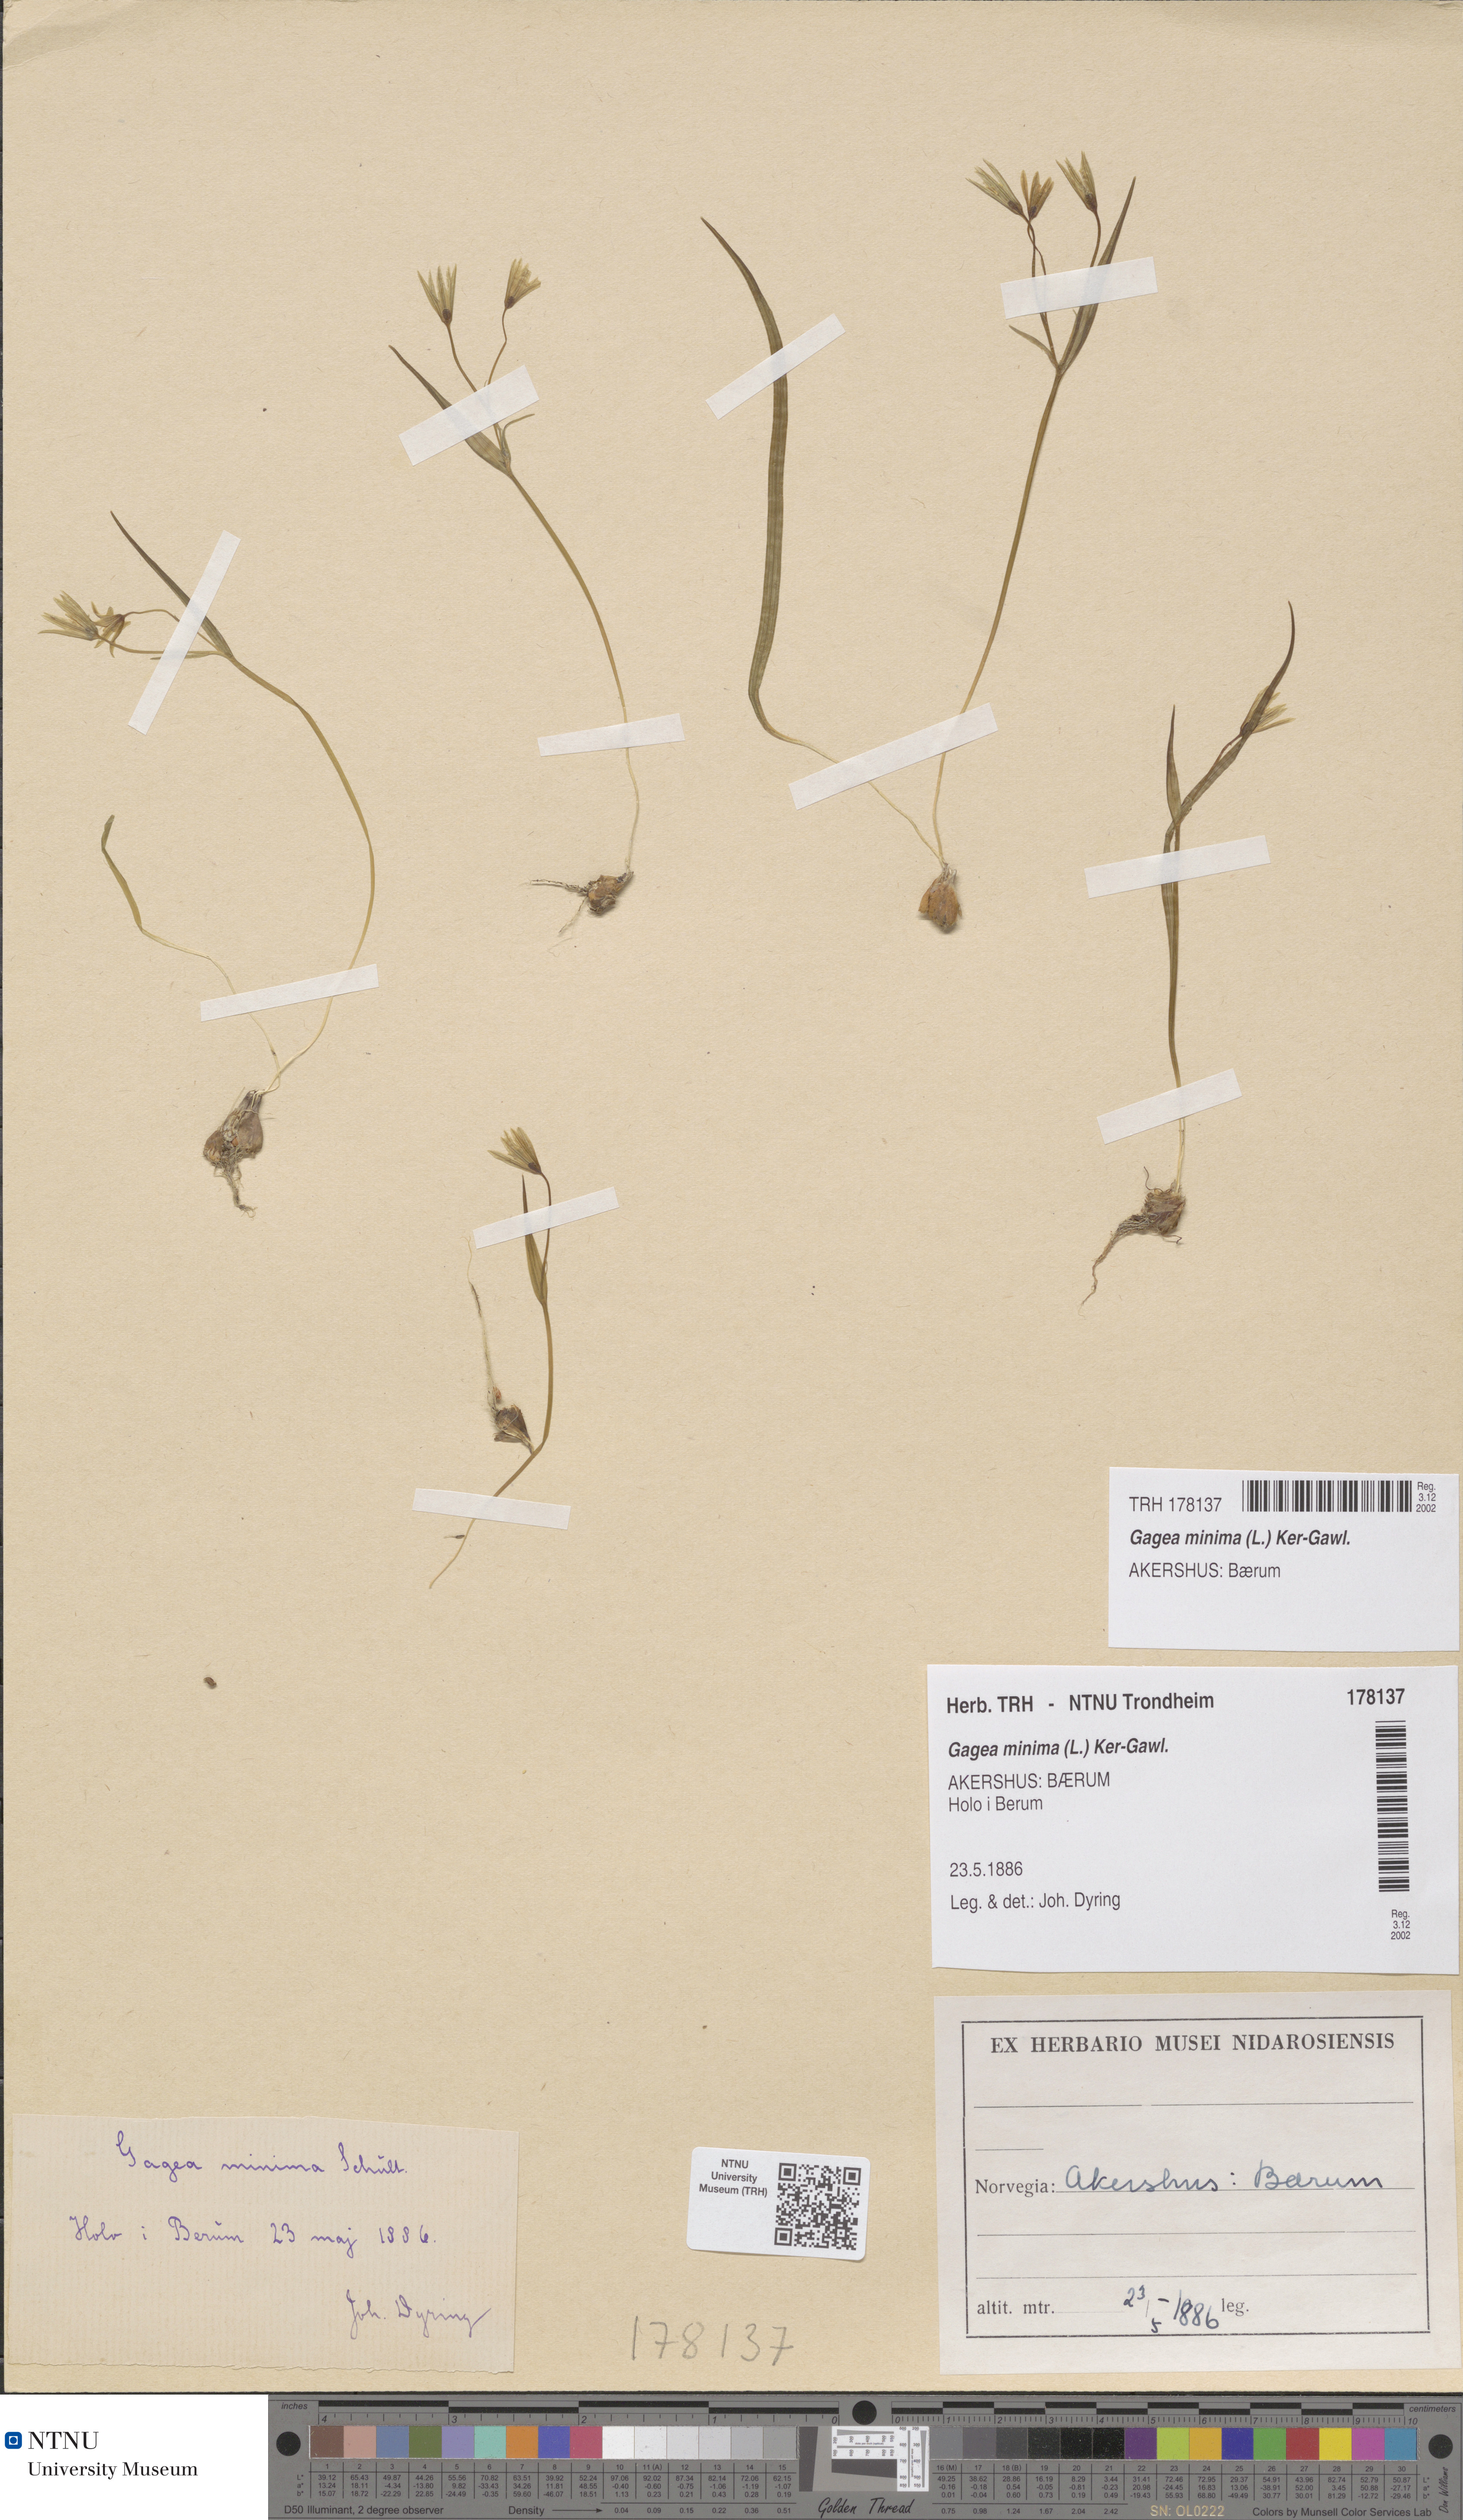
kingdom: Plantae
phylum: Tracheophyta
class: Liliopsida
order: Liliales
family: Liliaceae
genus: Gagea
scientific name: Gagea minima
